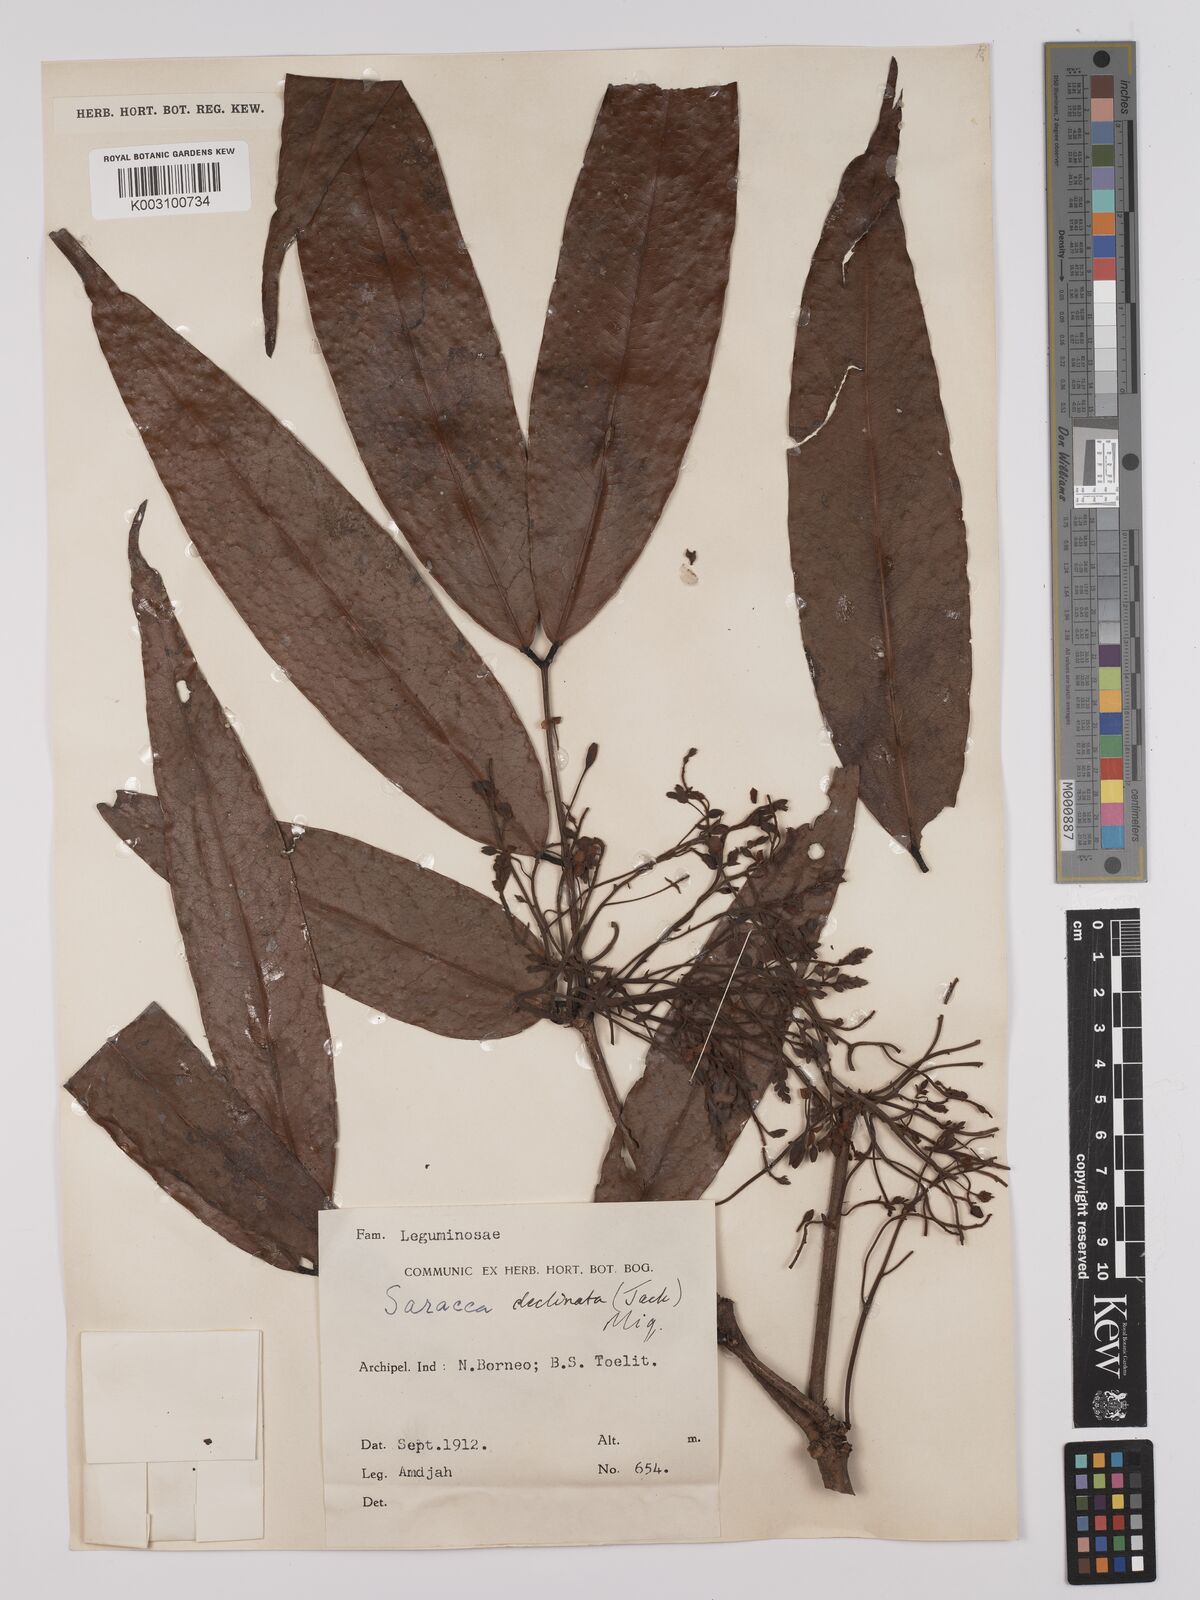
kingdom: Plantae
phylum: Tracheophyta
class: Magnoliopsida
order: Fabales
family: Fabaceae
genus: Saraca
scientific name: Saraca declinata
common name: Red saraca
